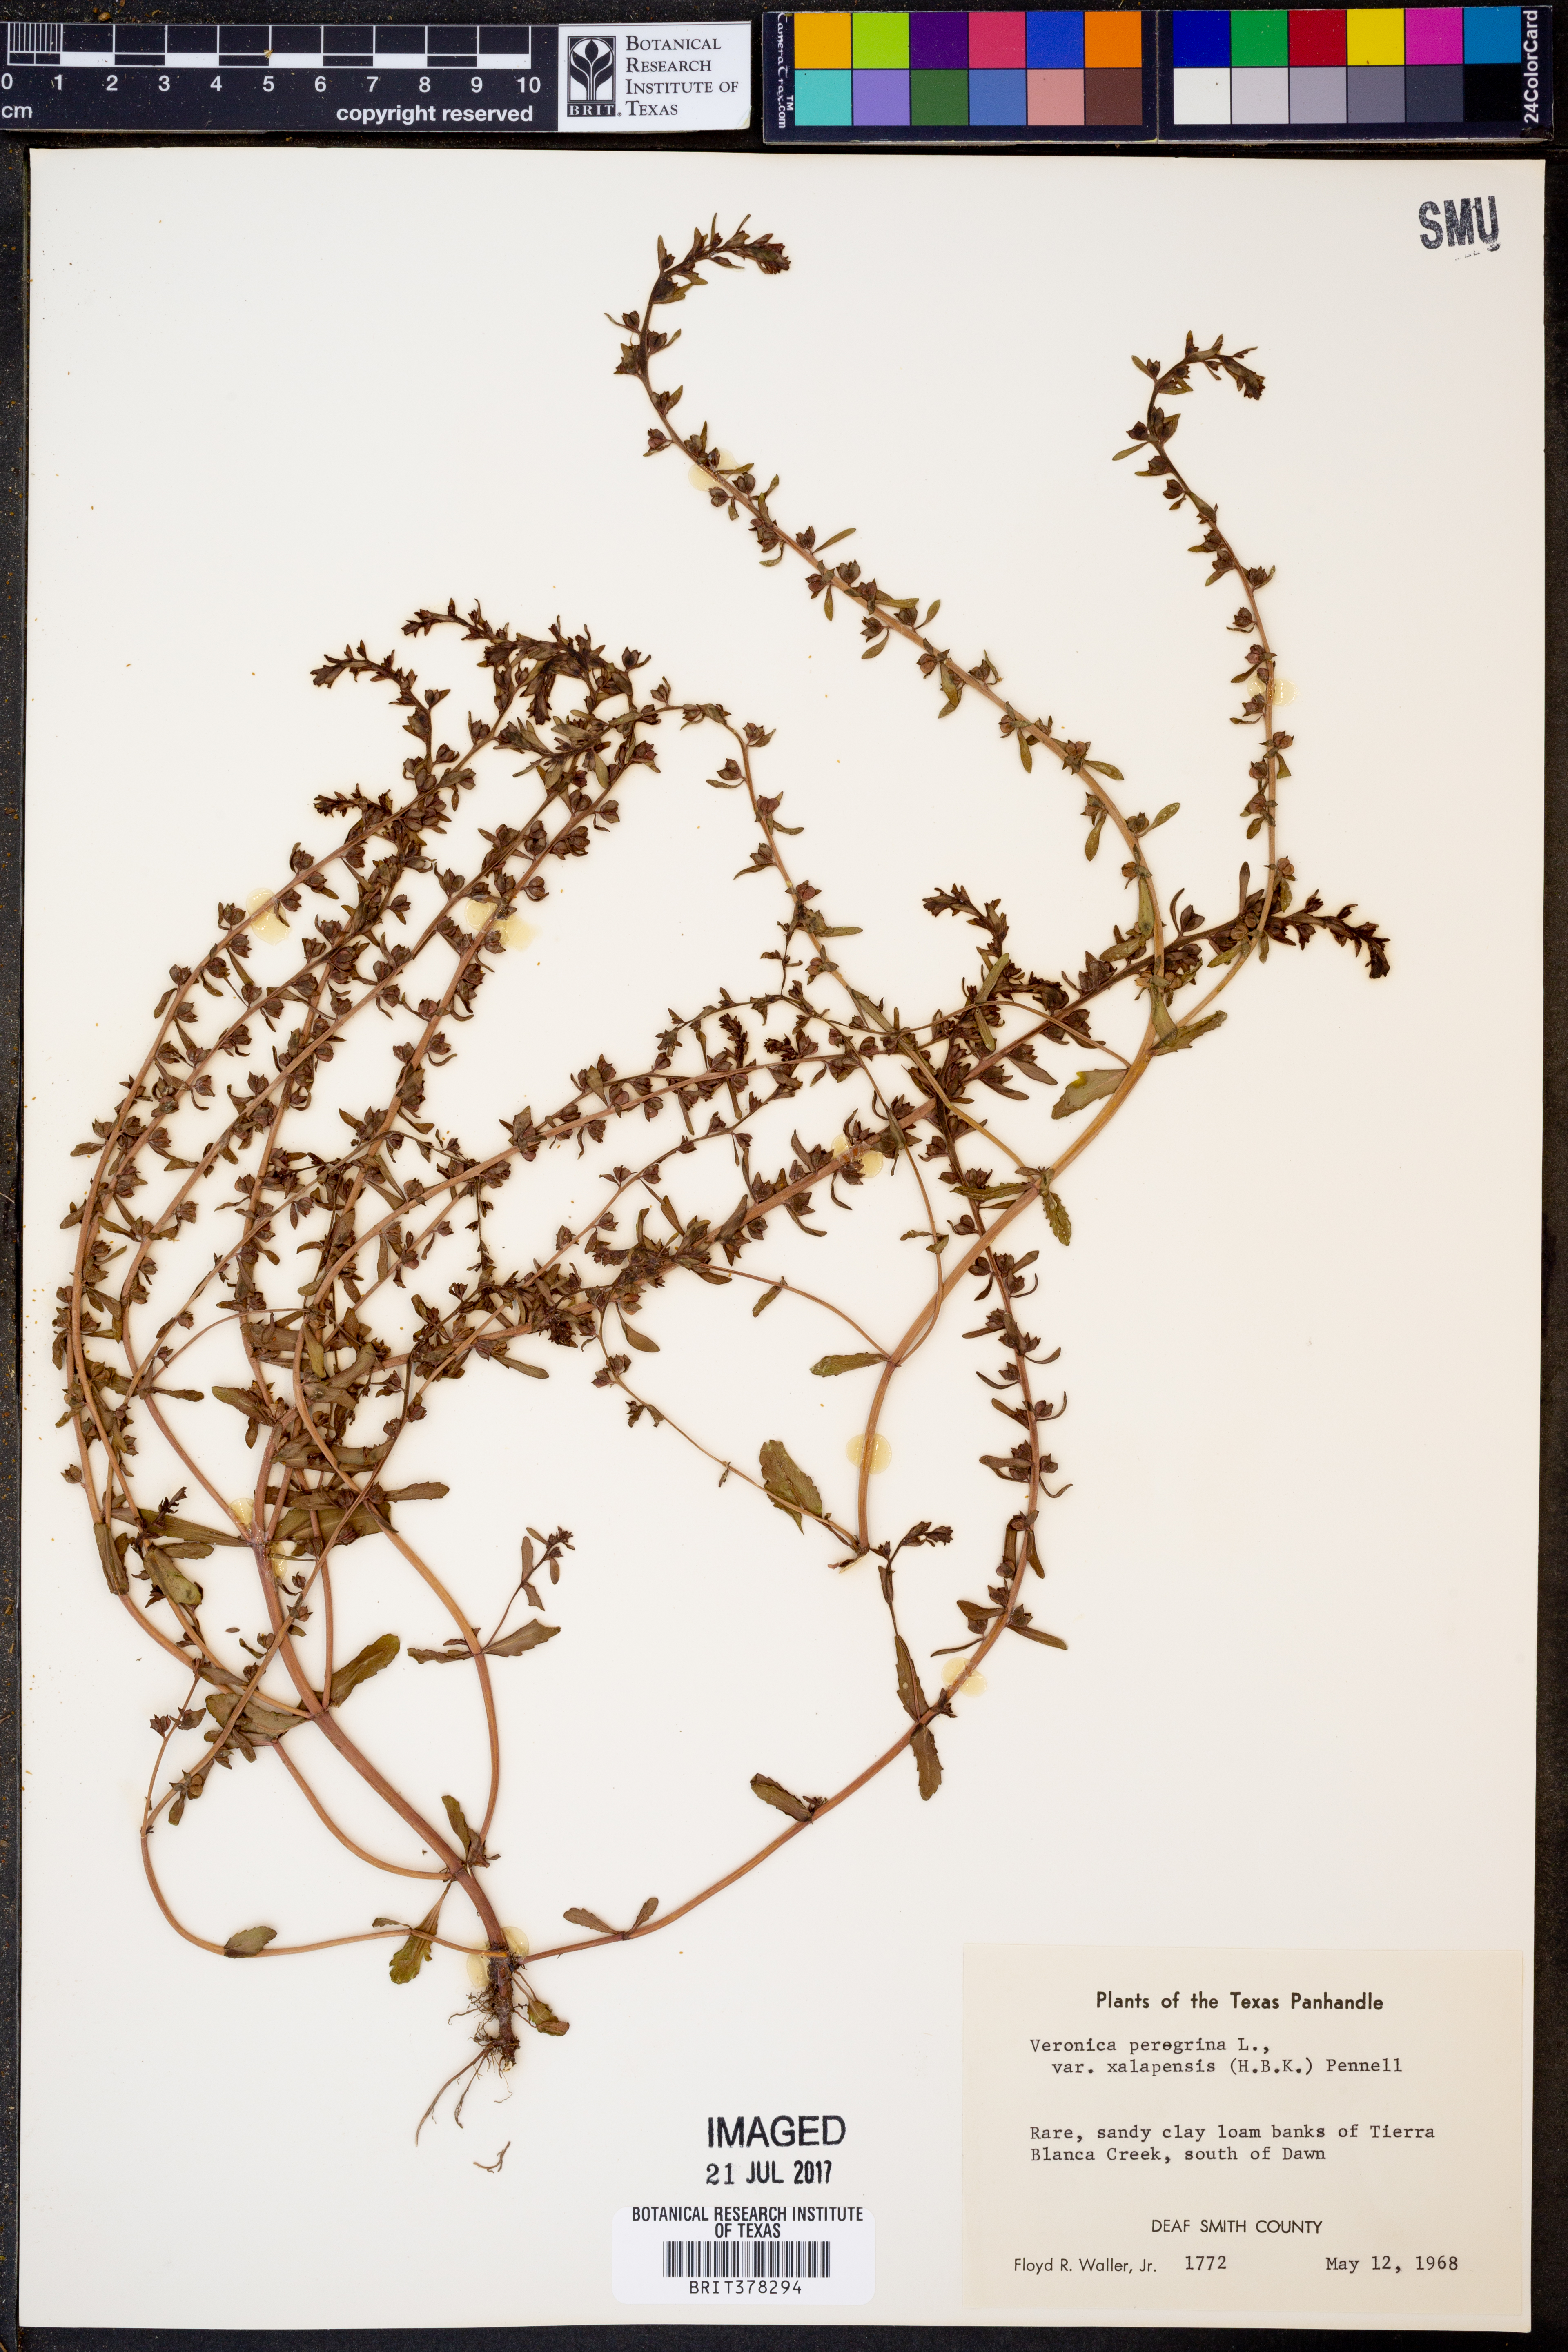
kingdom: Plantae
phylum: Tracheophyta
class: Magnoliopsida
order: Lamiales
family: Plantaginaceae
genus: Veronica
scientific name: Veronica peregrina
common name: Neckweed
